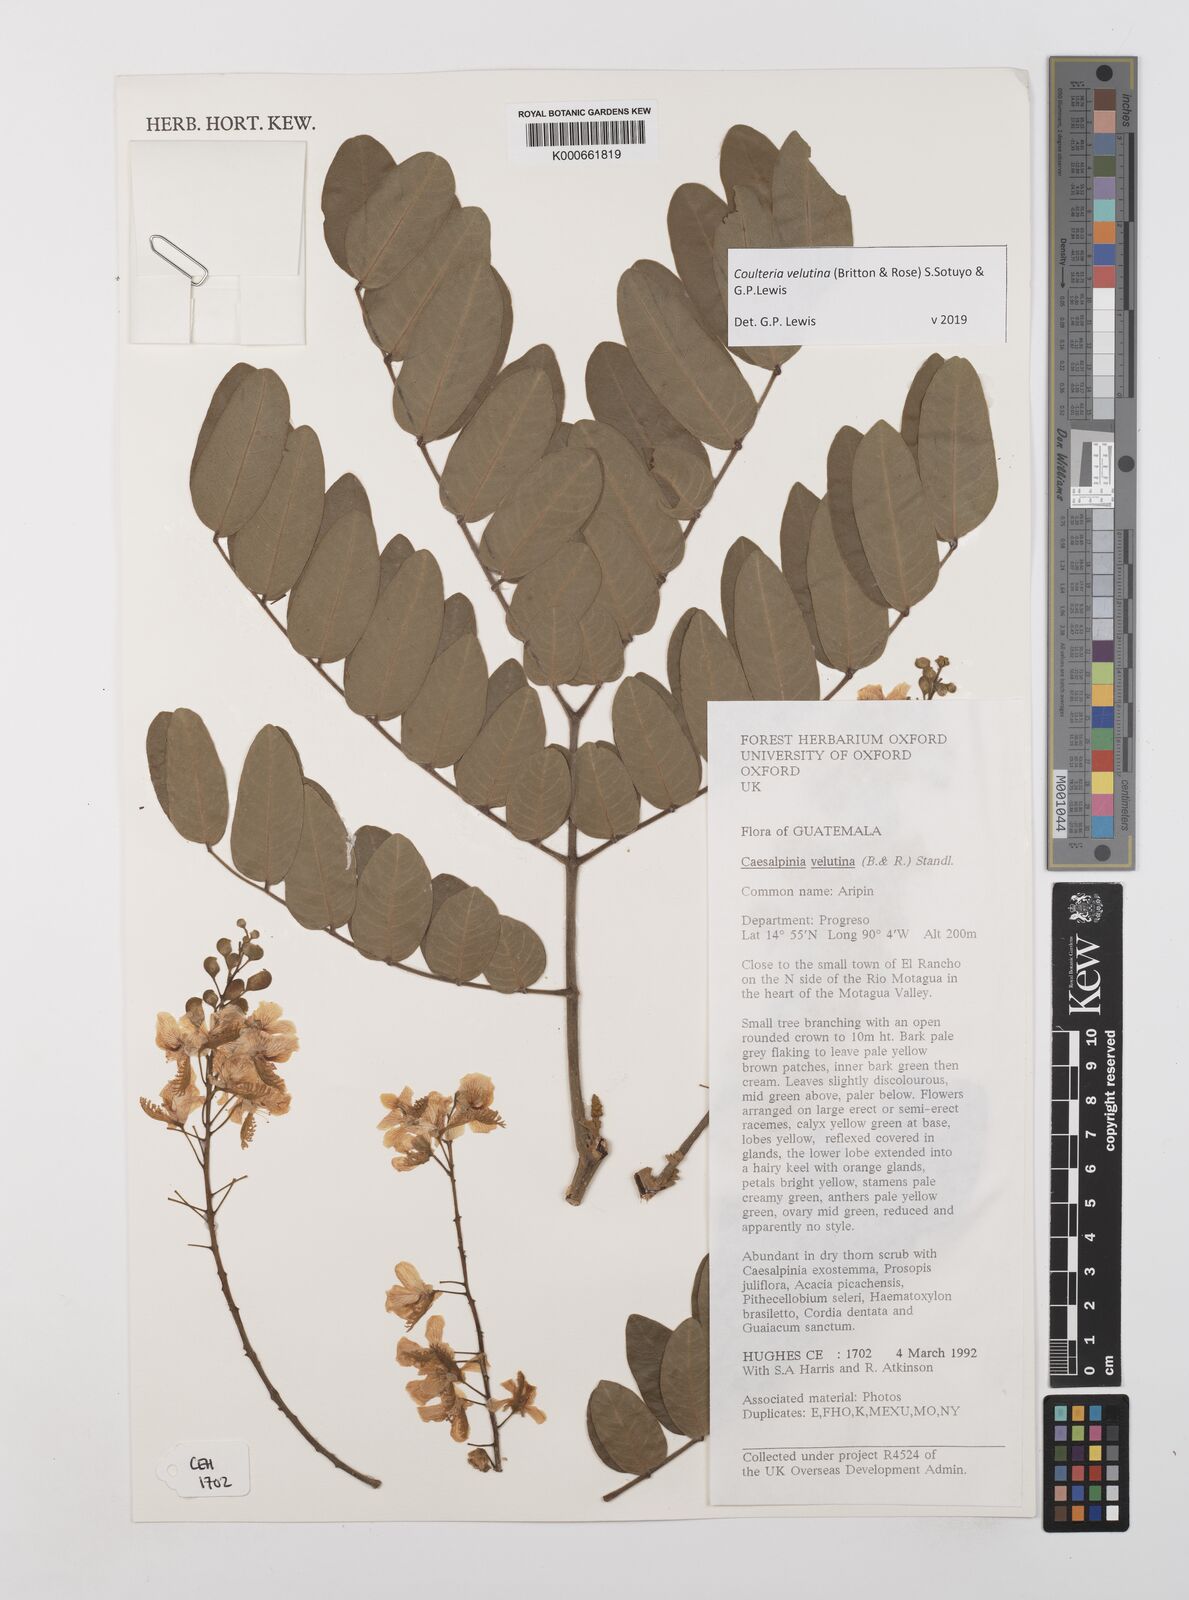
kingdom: Plantae
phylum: Tracheophyta
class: Magnoliopsida
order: Fabales
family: Fabaceae
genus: Coulteria
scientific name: Coulteria velutina
